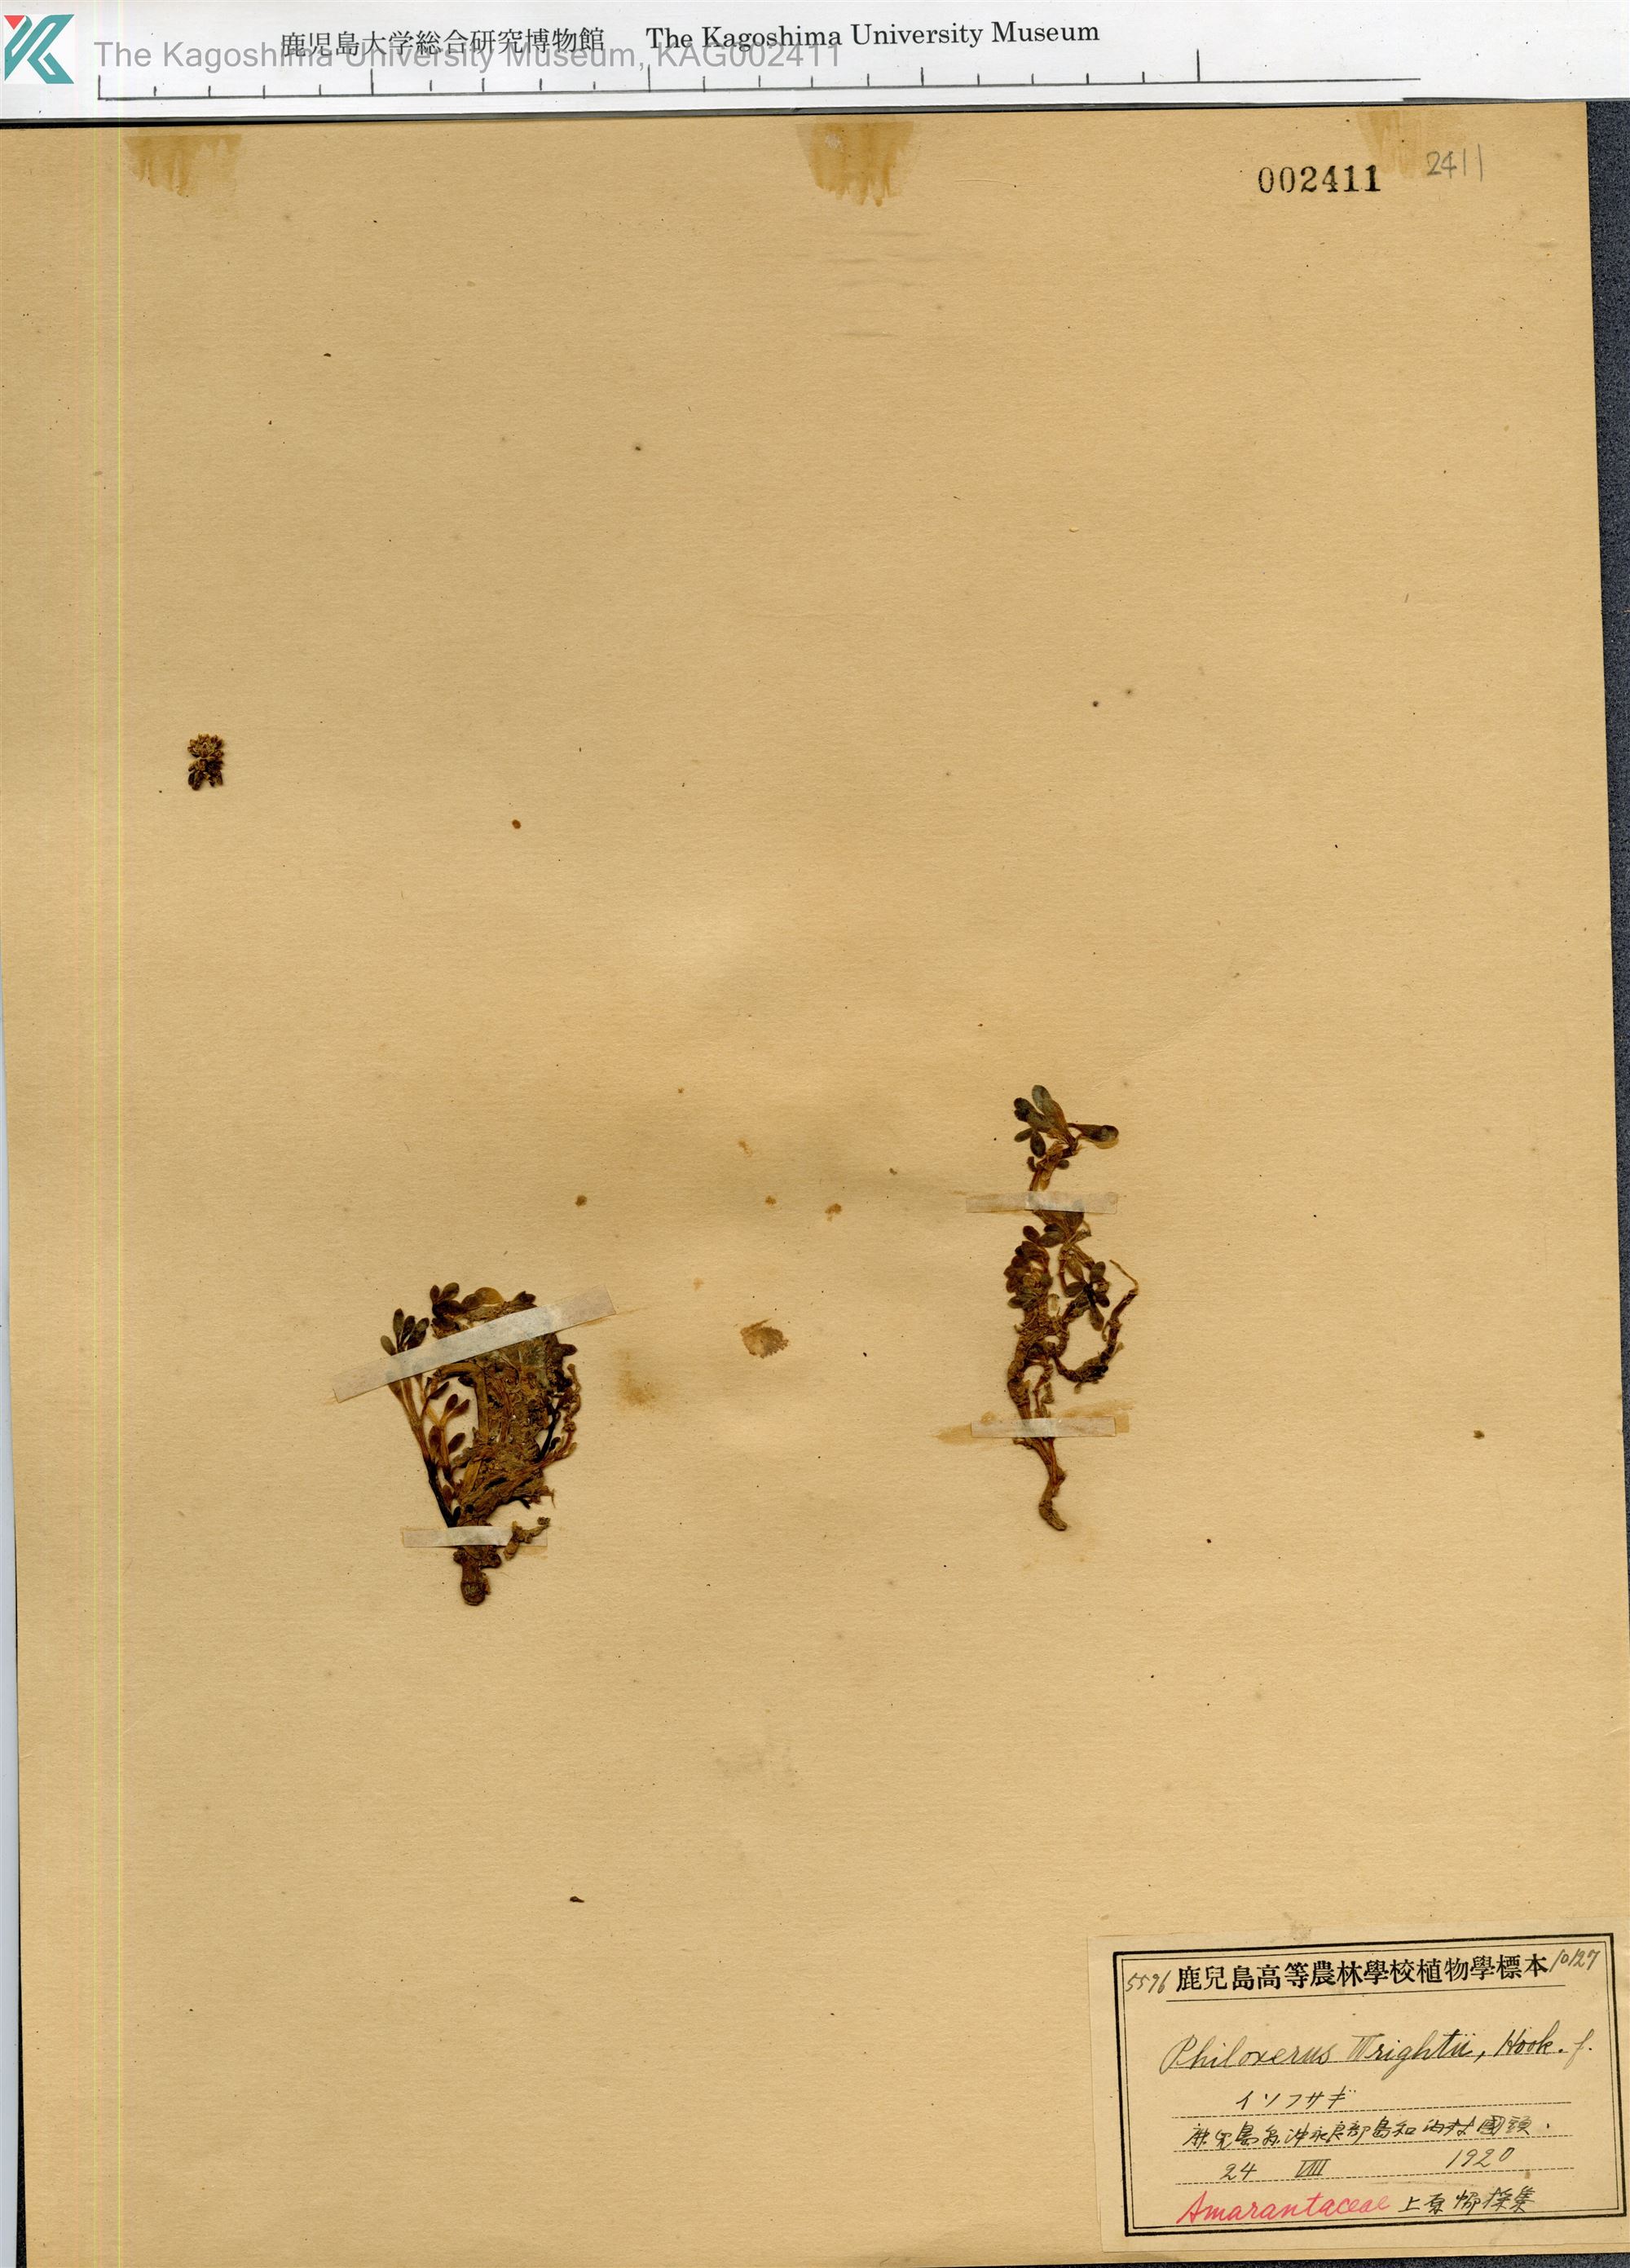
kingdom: Plantae
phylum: Tracheophyta
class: Magnoliopsida
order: Caryophyllales
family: Amaranthaceae
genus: Gomphrena
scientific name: Gomphrena wrightii
